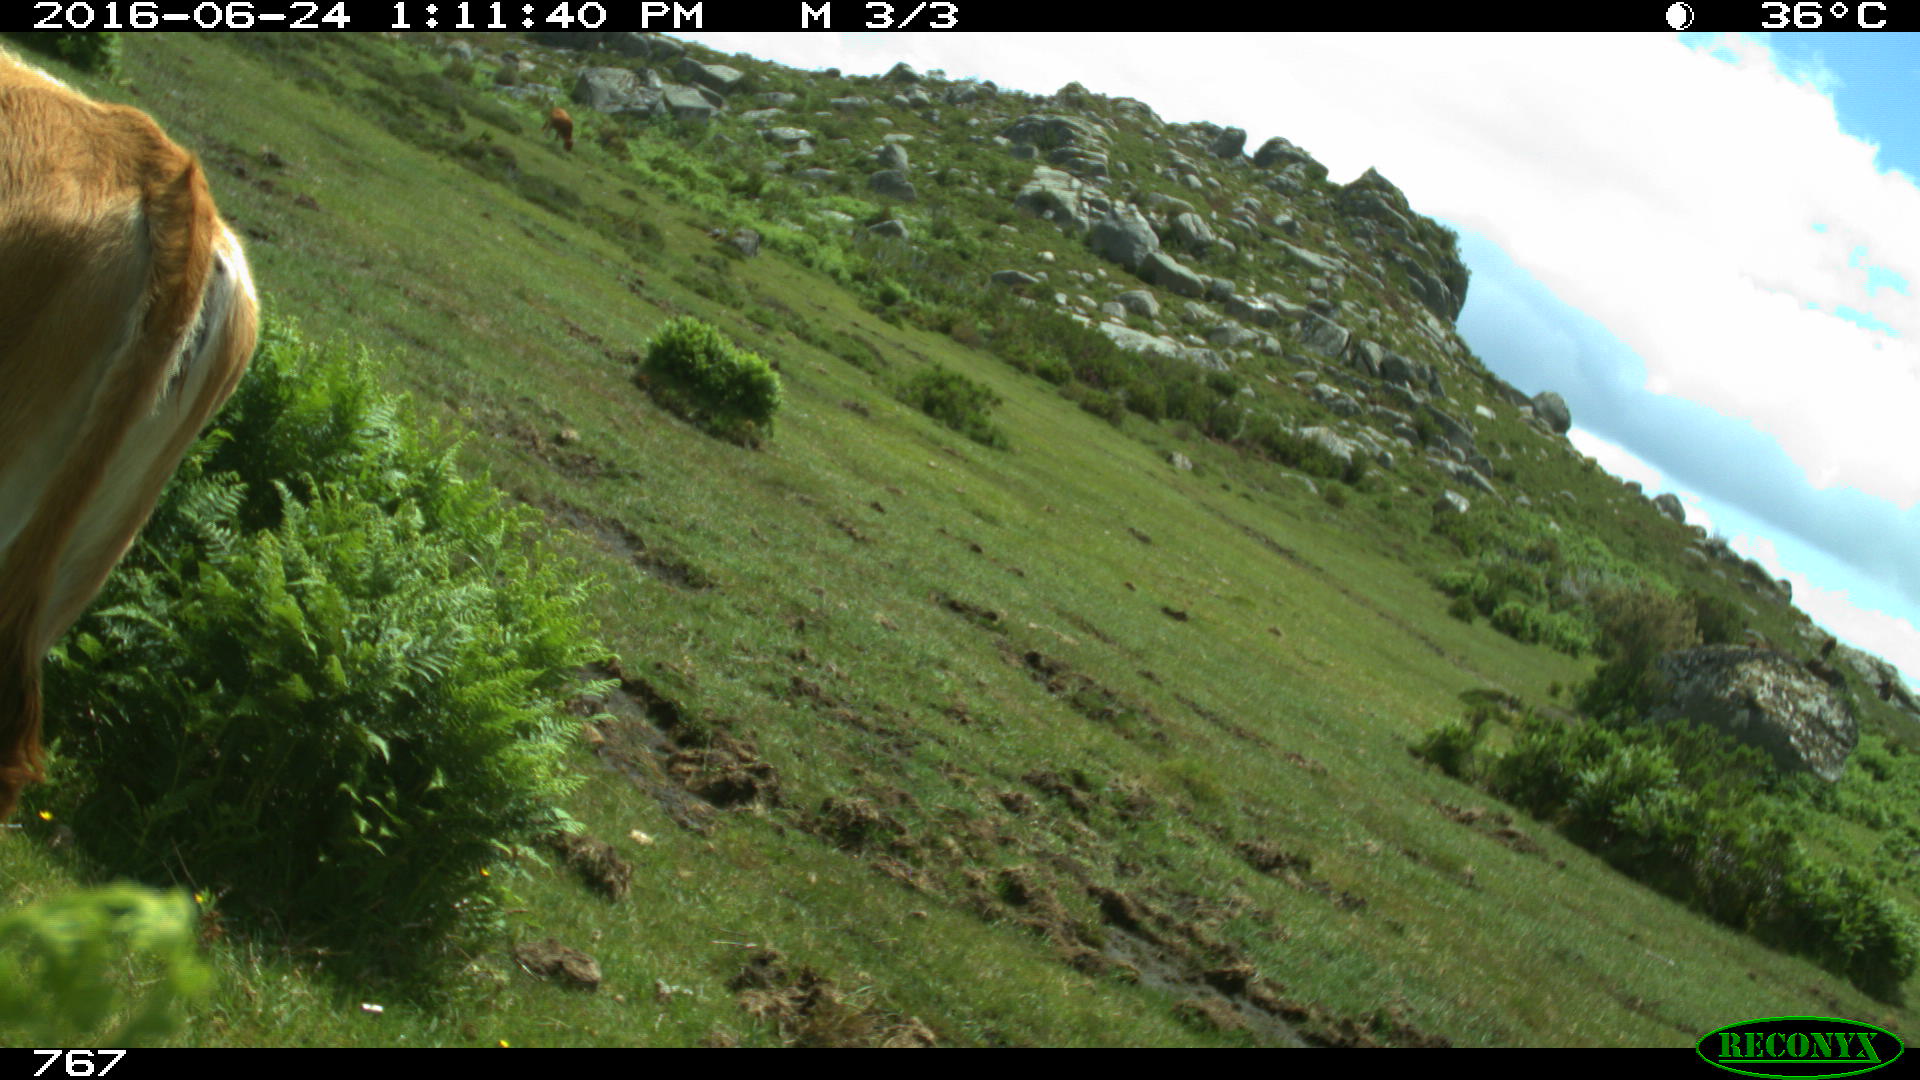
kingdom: Animalia
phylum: Chordata
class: Mammalia
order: Artiodactyla
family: Bovidae
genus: Bos
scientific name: Bos taurus
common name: Domesticated cattle
